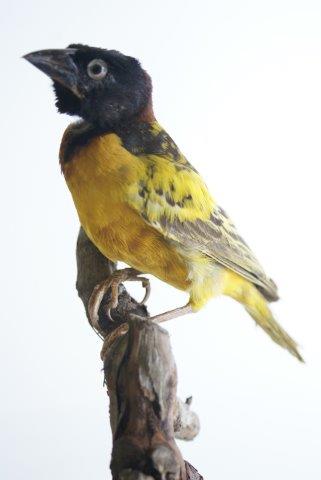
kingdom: Animalia
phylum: Chordata
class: Aves
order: Passeriformes
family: Ploceidae
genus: Ploceus
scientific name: Ploceus cucullatus
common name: Grote textorwever
